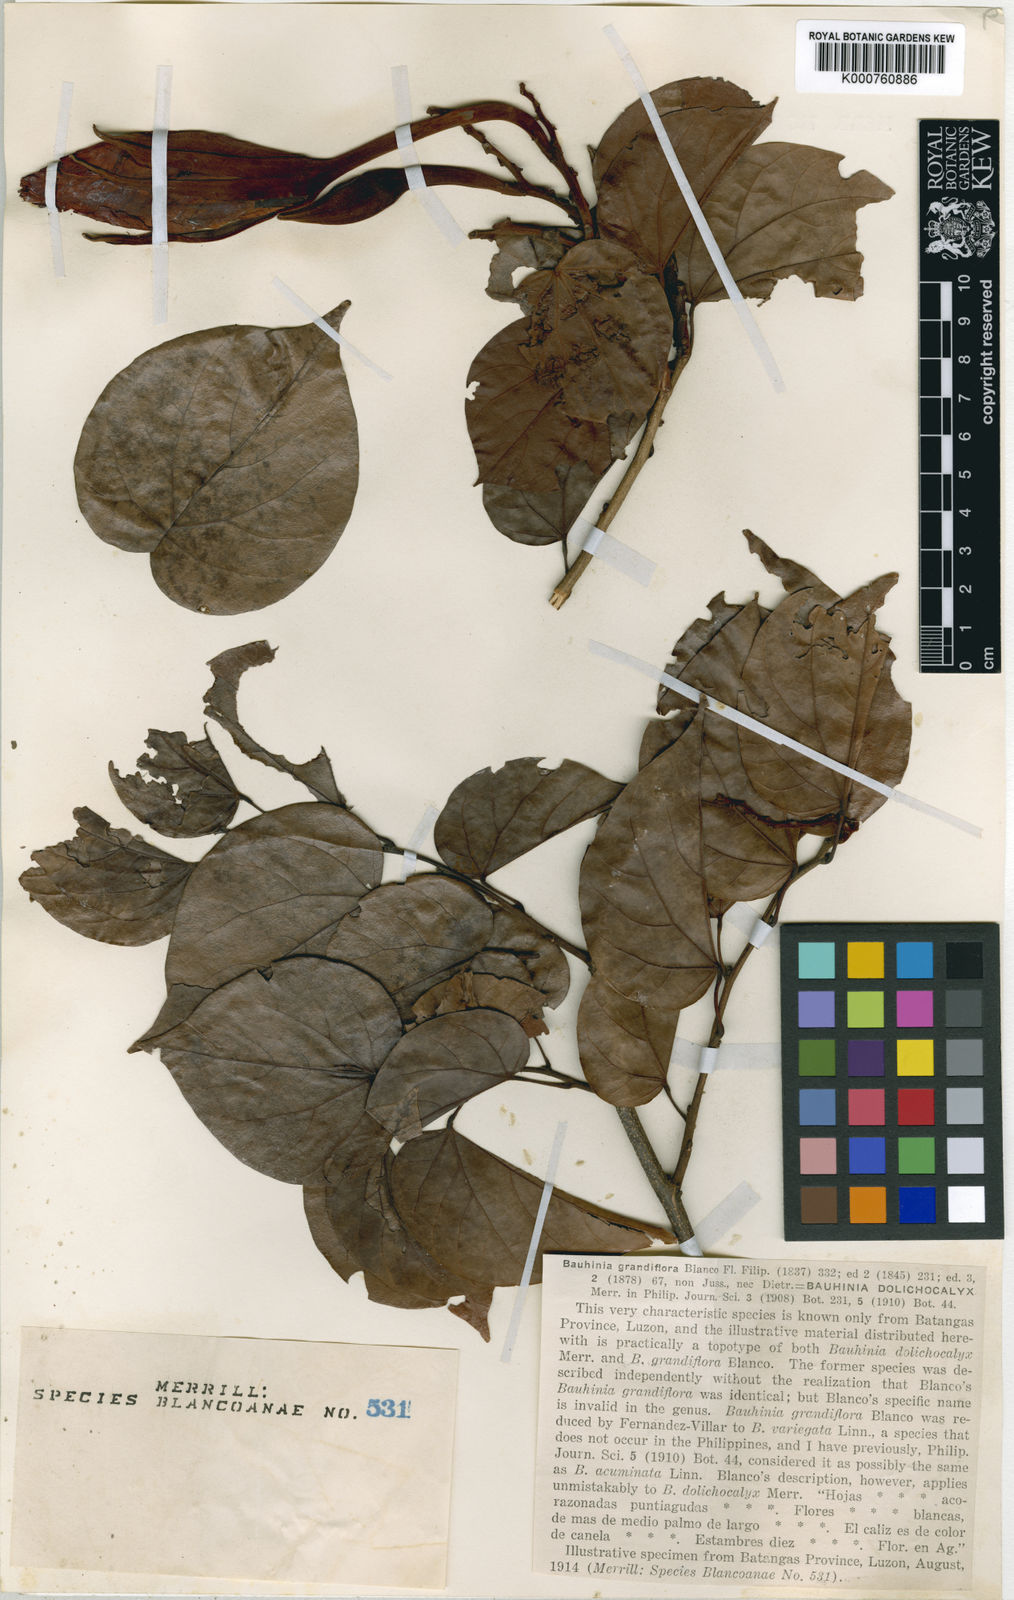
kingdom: Plantae
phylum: Tracheophyta
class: Magnoliopsida
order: Fabales
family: Fabaceae
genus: Gigasiphon
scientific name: Gigasiphon dolichocalyx
